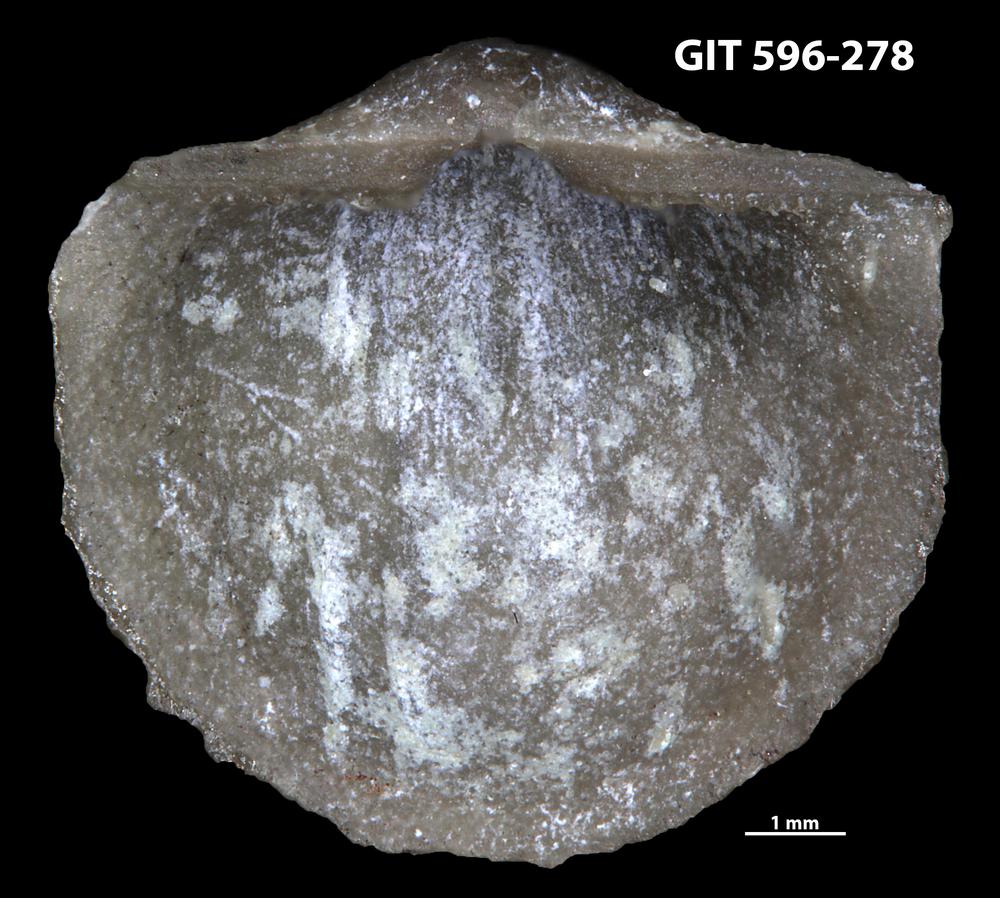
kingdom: Animalia
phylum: Brachiopoda
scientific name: Brachiopoda
